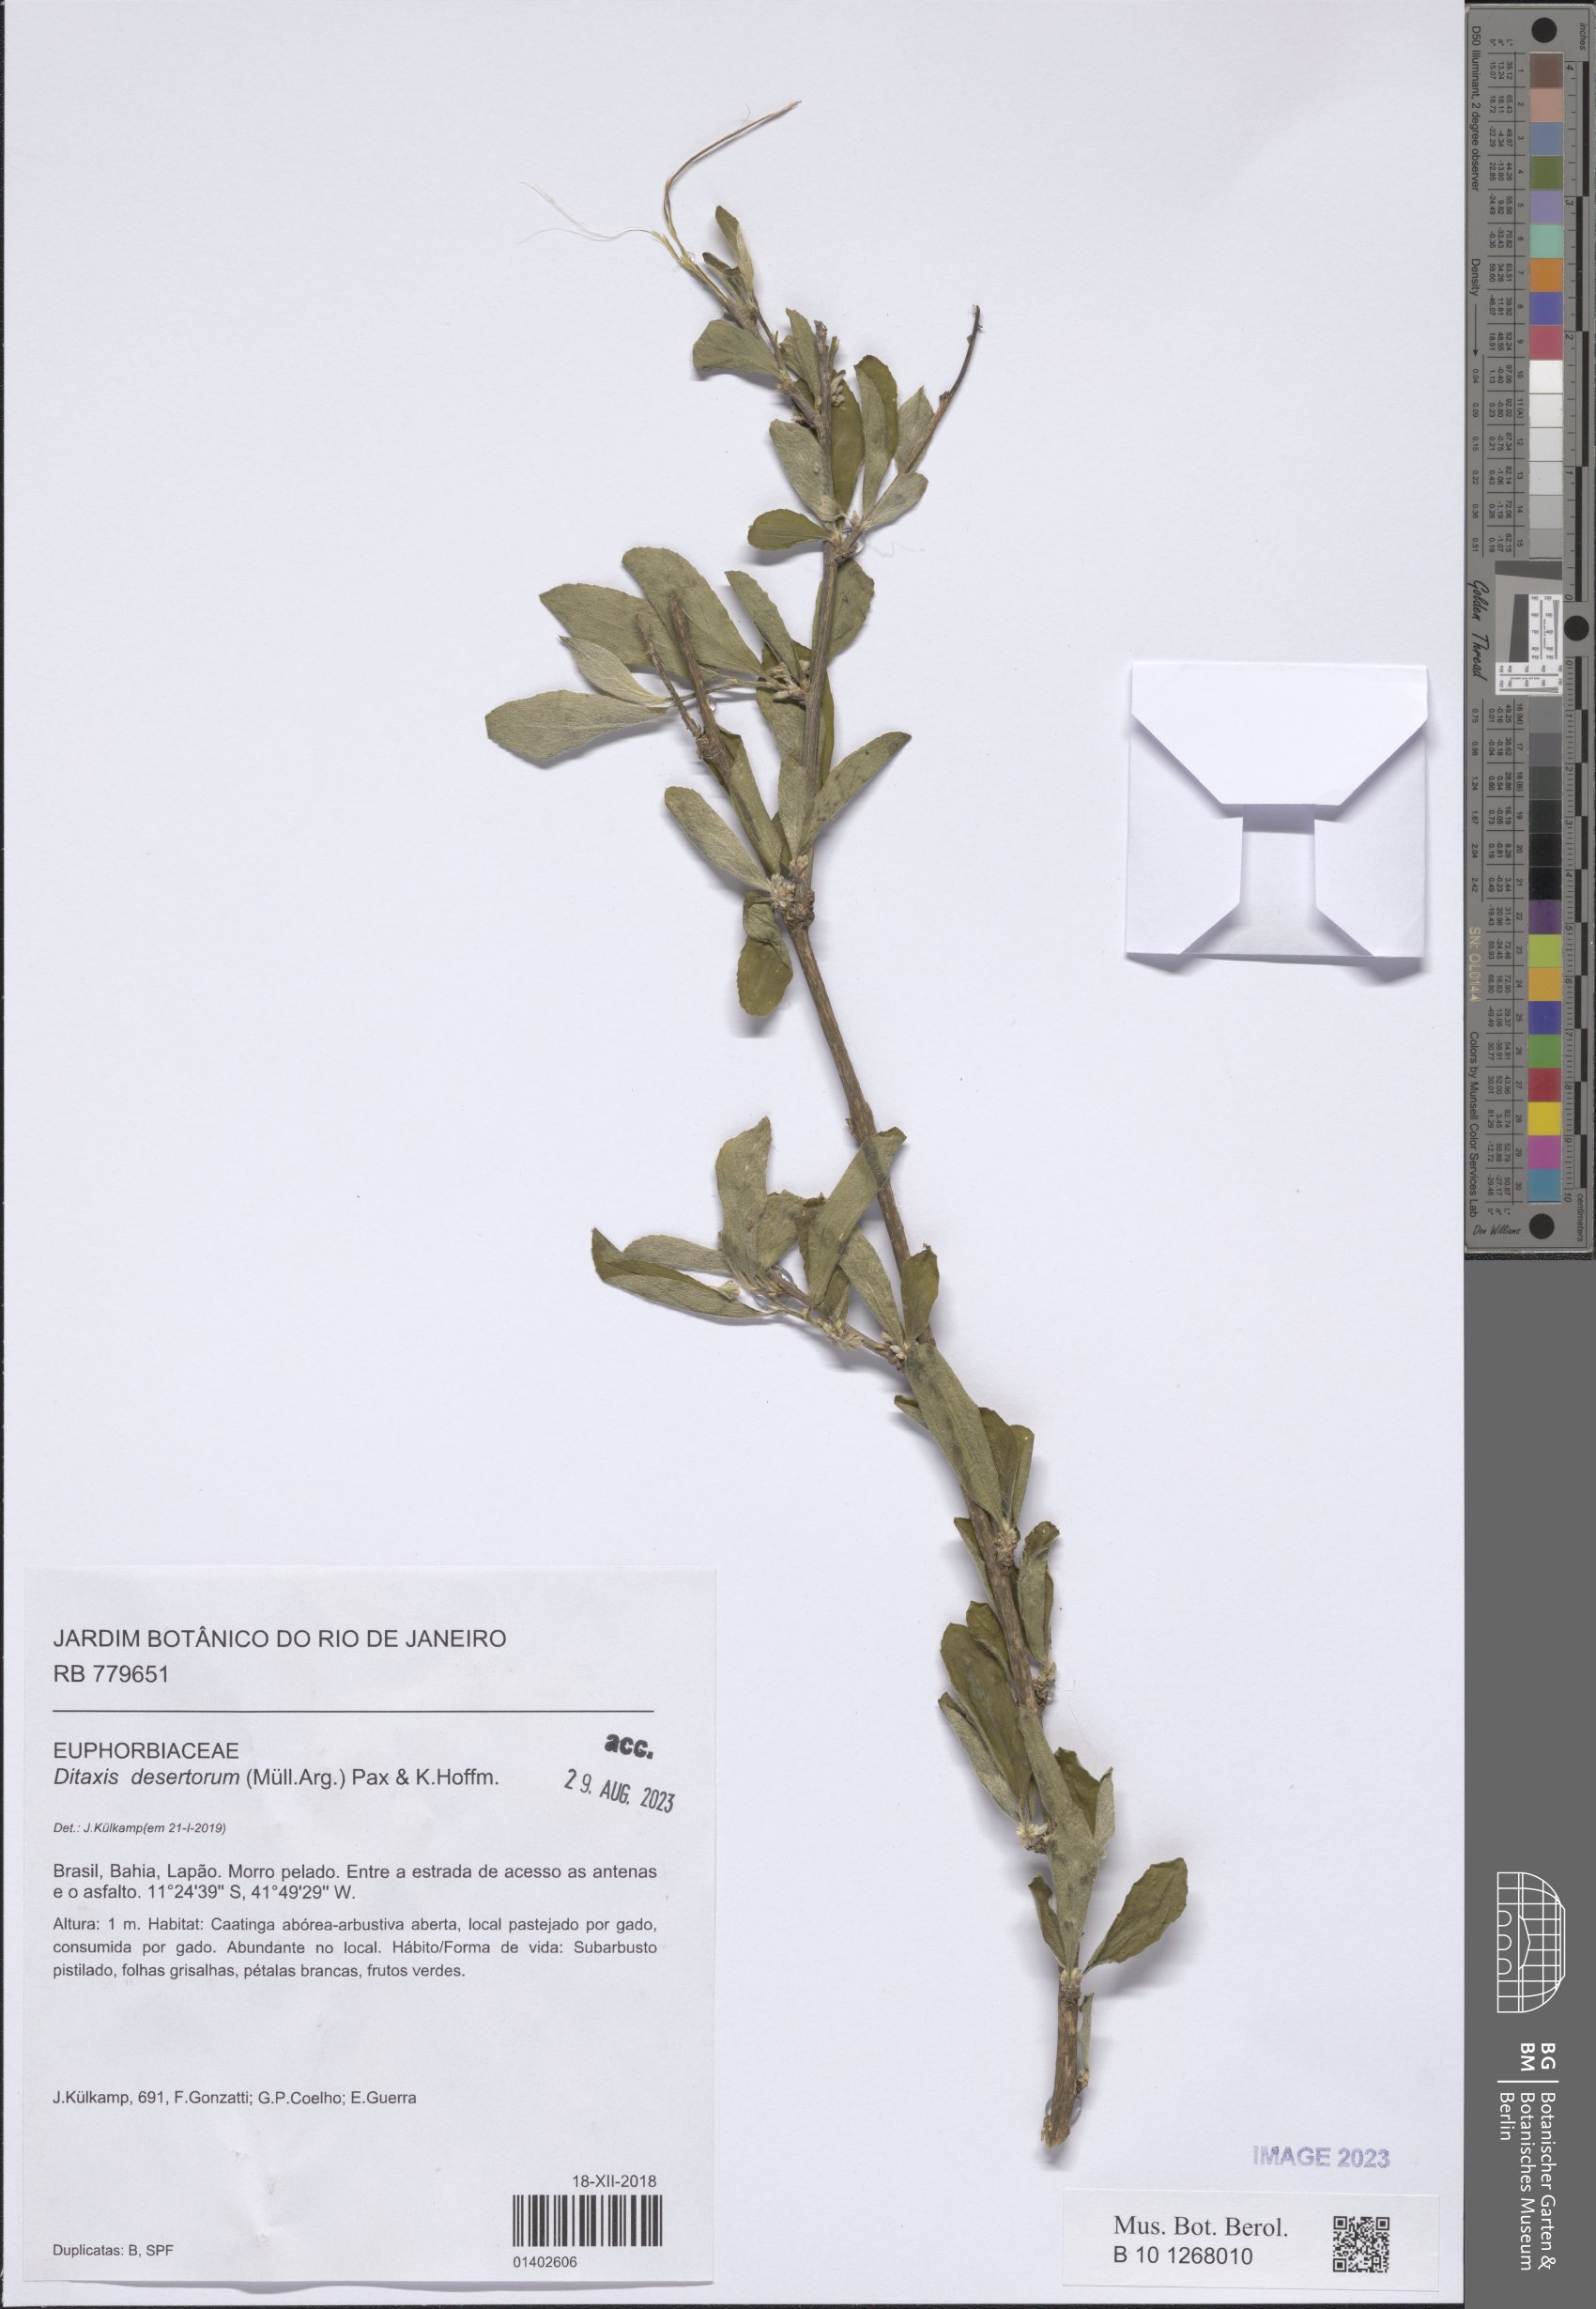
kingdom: Plantae
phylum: Tracheophyta
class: Magnoliopsida
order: Malpighiales
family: Euphorbiaceae
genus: Ditaxis
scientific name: Ditaxis desertorum
